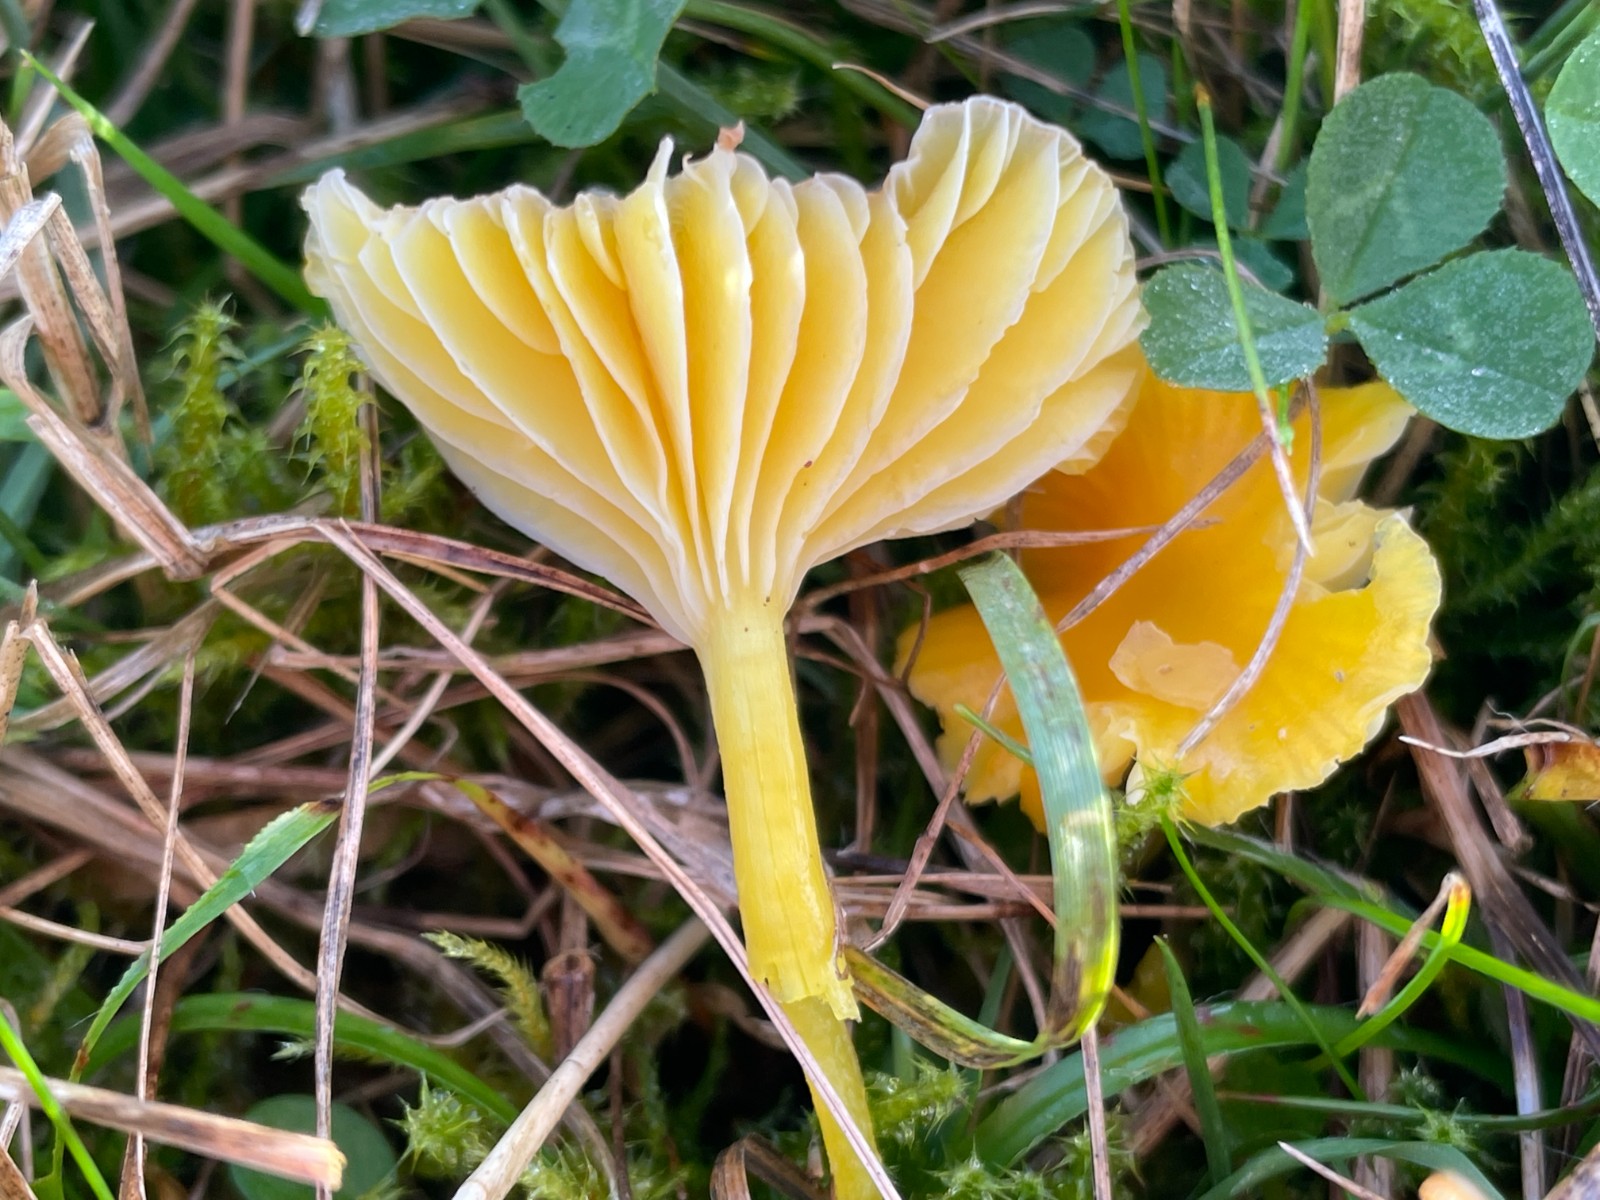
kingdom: Fungi
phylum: Basidiomycota
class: Agaricomycetes
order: Agaricales
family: Hygrophoraceae
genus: Hygrocybe
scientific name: Hygrocybe ceracea
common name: voksgul vokshat
